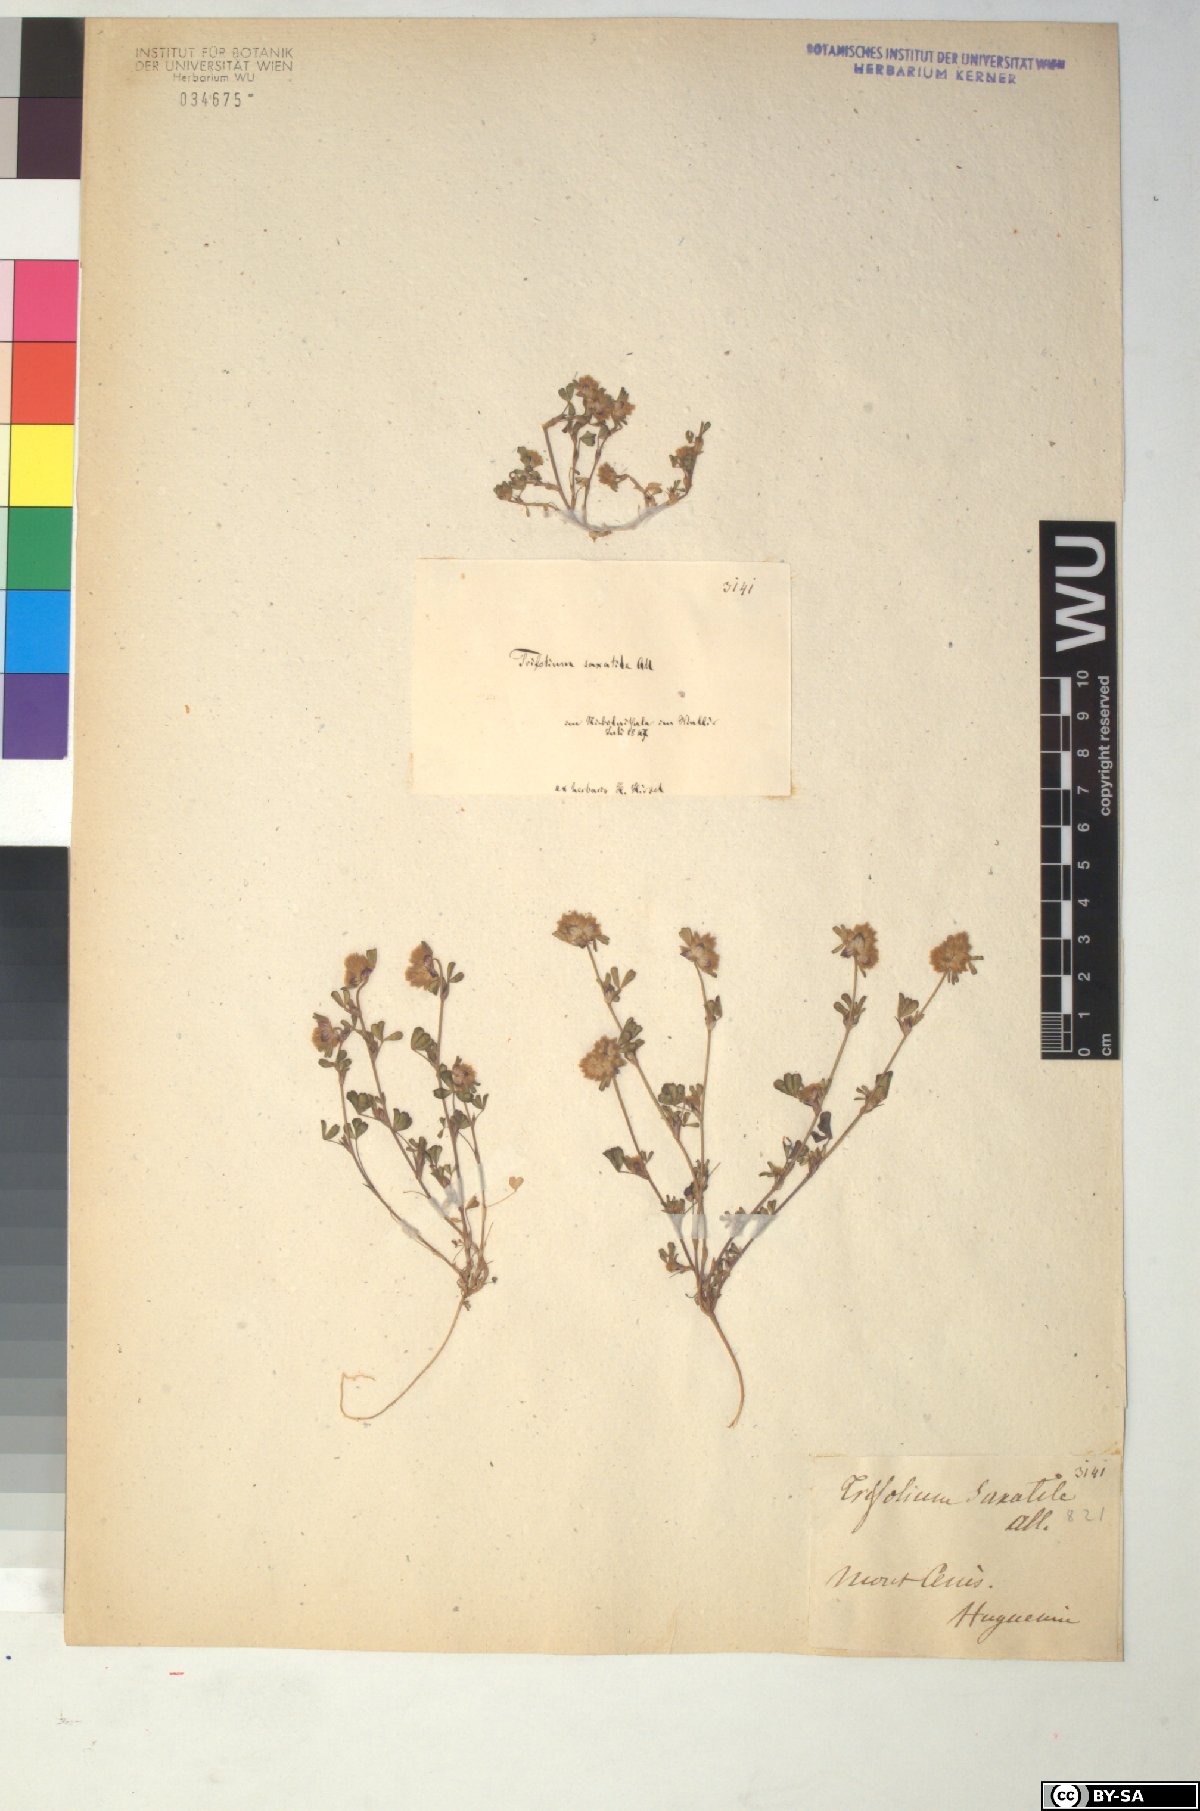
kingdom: Plantae
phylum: Tracheophyta
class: Magnoliopsida
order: Fabales
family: Fabaceae
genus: Trifolium
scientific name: Trifolium saxatile
